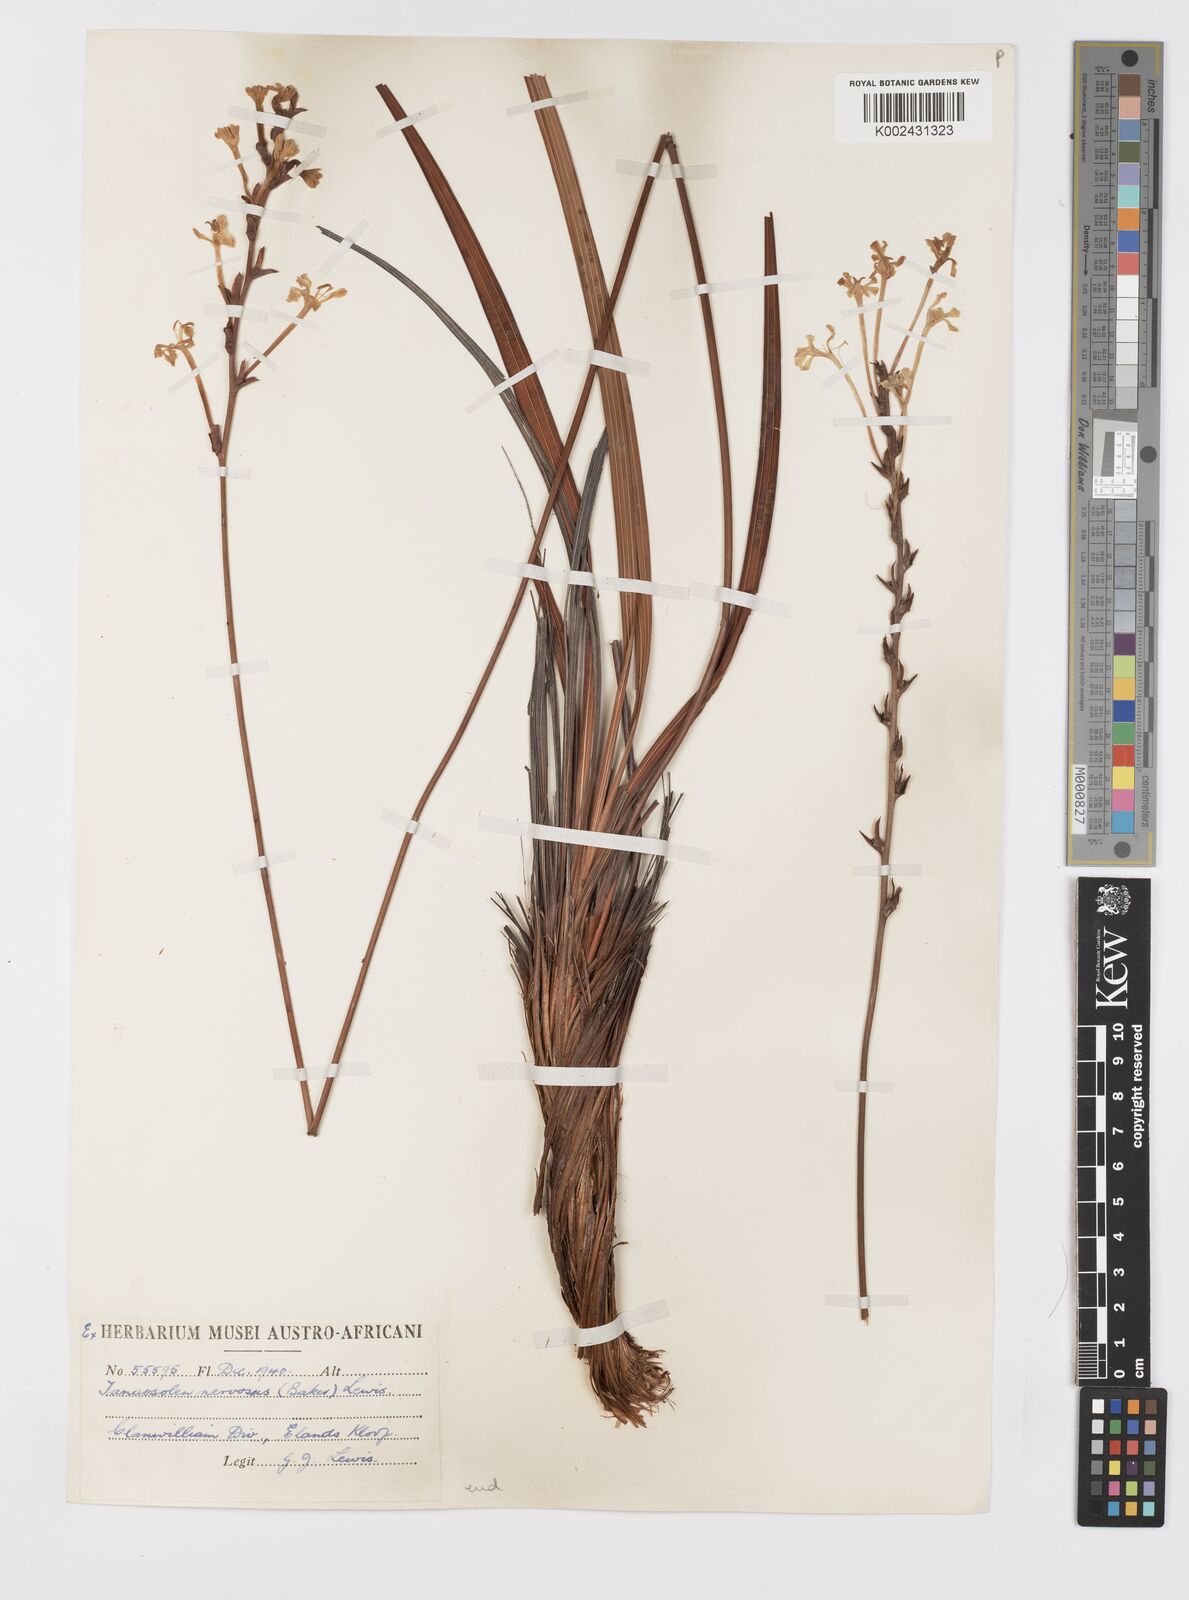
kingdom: Plantae
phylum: Tracheophyta
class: Liliopsida
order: Asparagales
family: Iridaceae
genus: Tritoniopsis
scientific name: Tritoniopsis nervosa
